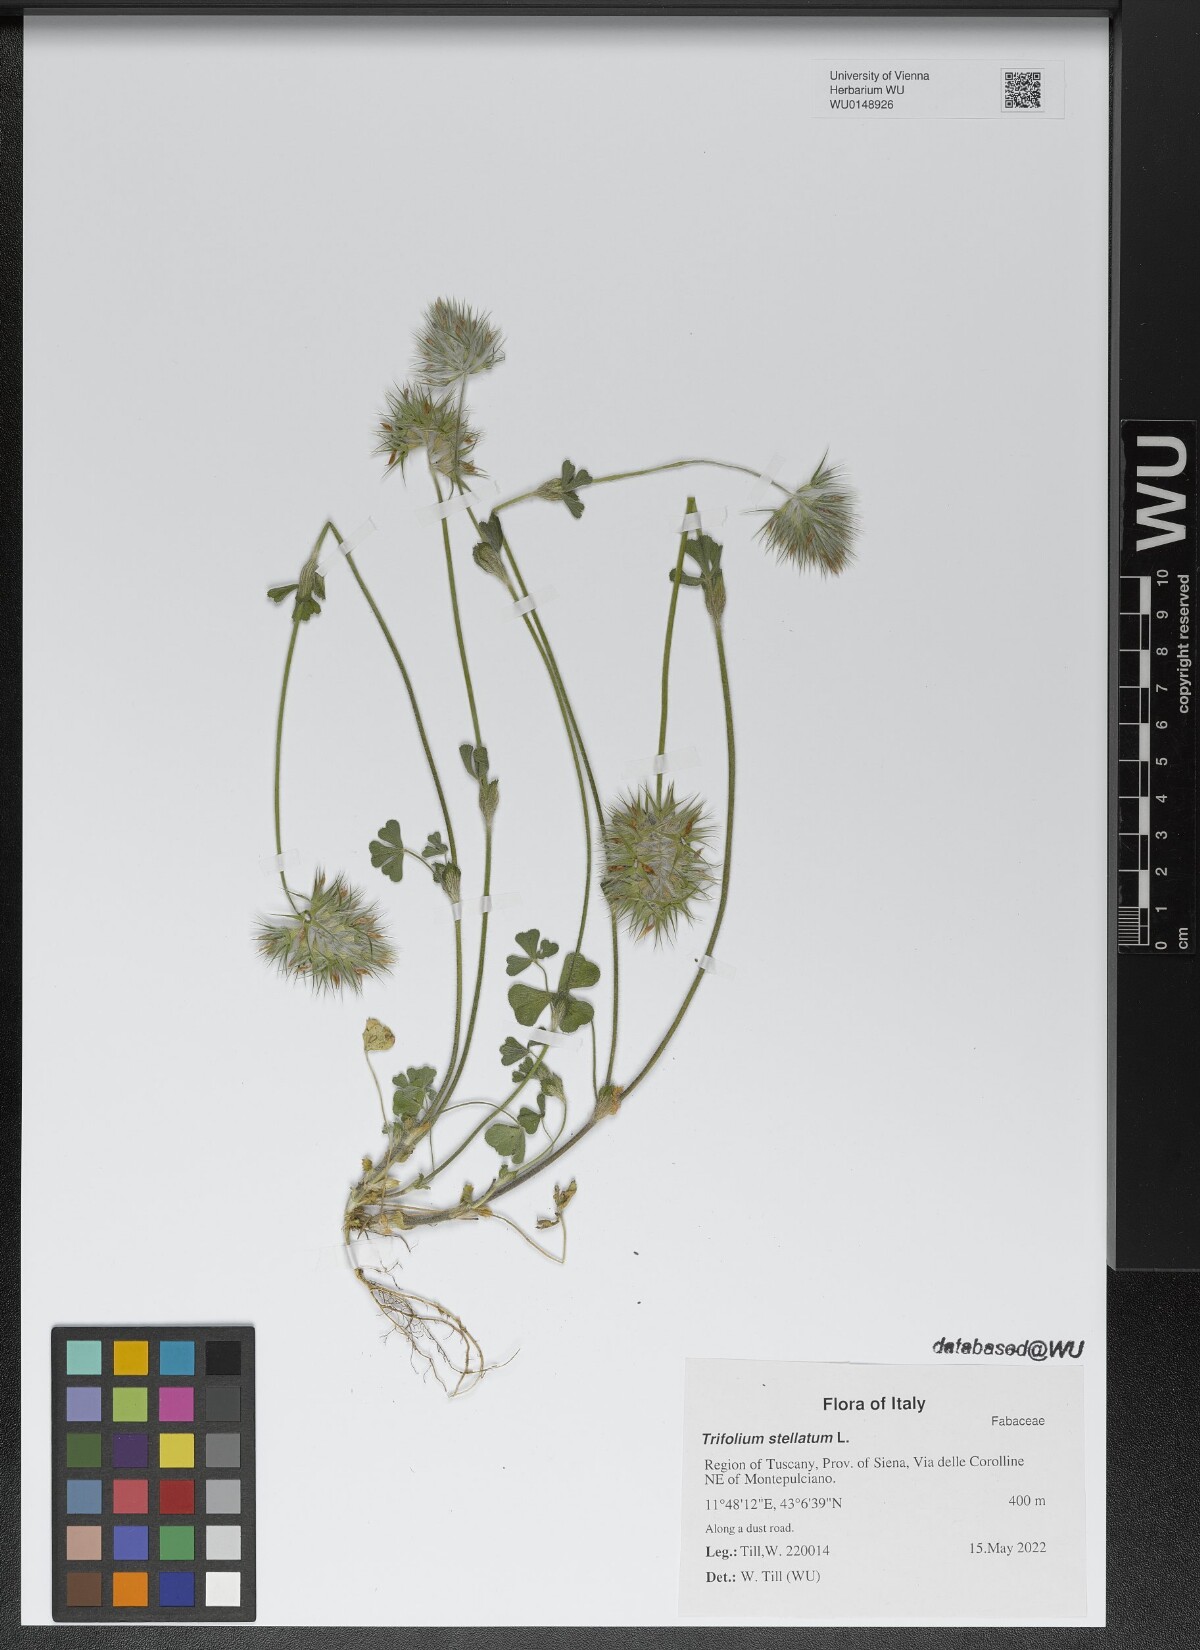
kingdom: Plantae
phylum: Tracheophyta
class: Magnoliopsida
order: Fabales
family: Fabaceae
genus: Trifolium
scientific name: Trifolium stellatum
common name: Starry clover
